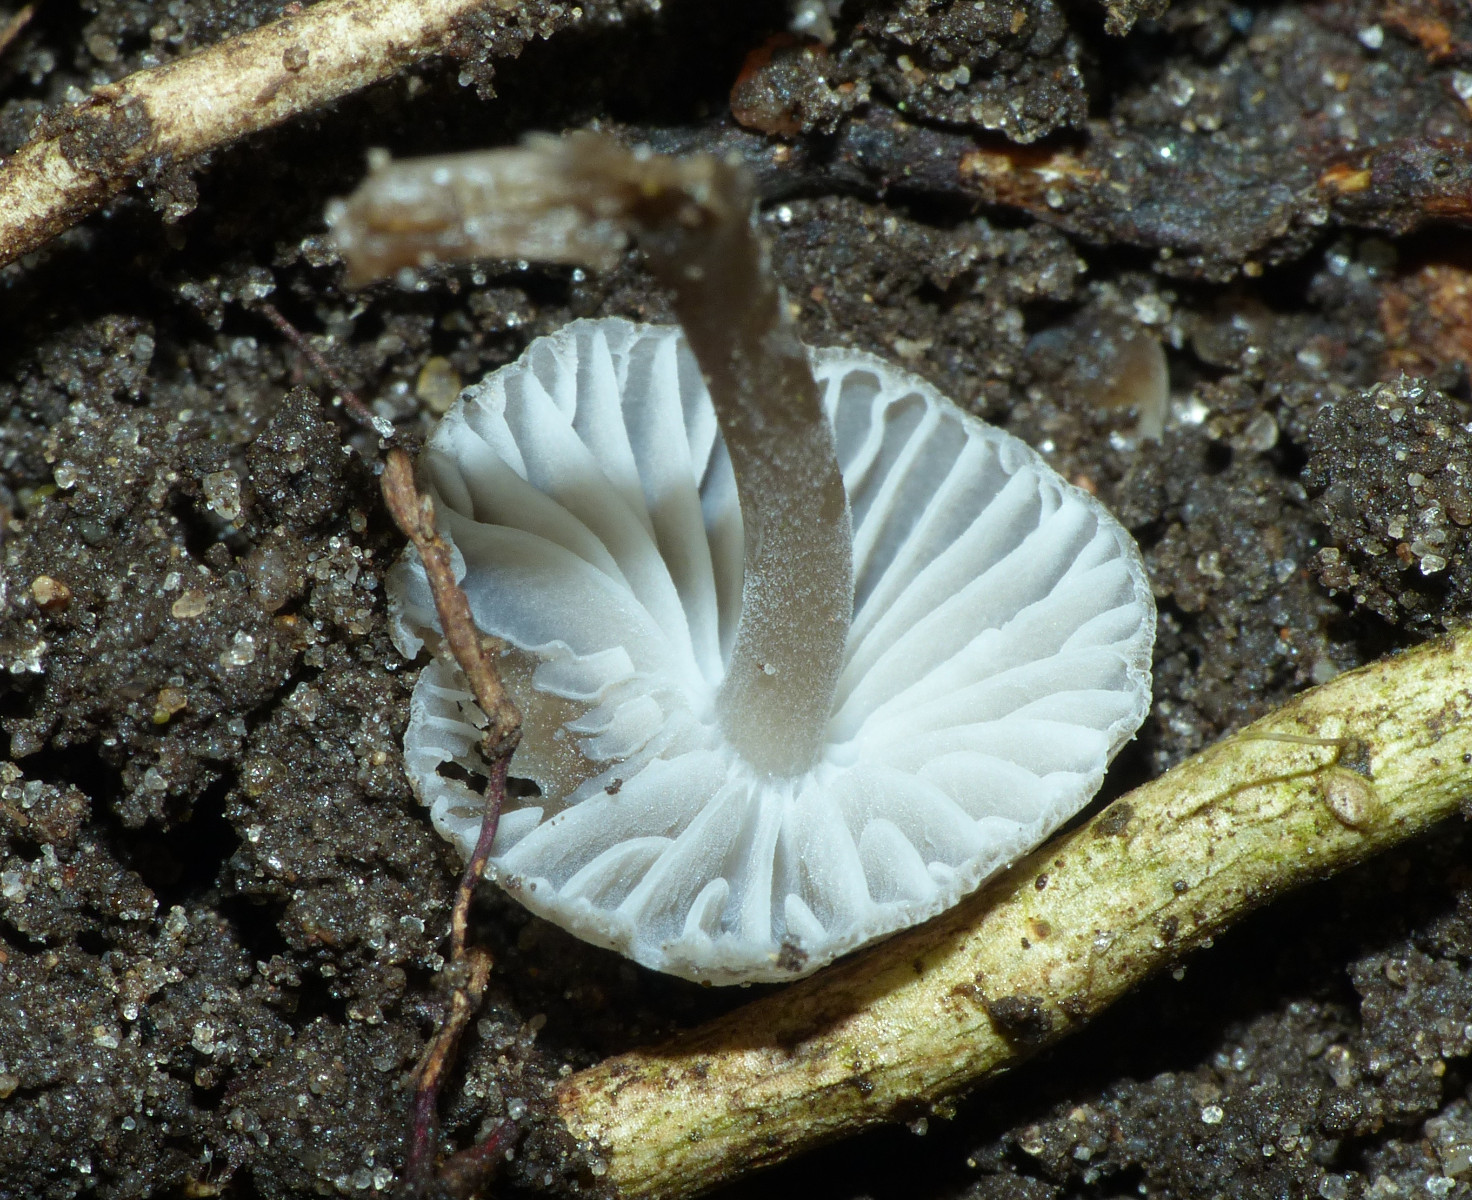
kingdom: Fungi
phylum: Basidiomycota
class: Agaricomycetes
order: Agaricales
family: Mycenaceae
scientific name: Mycenaceae
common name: huesvampfamilien
